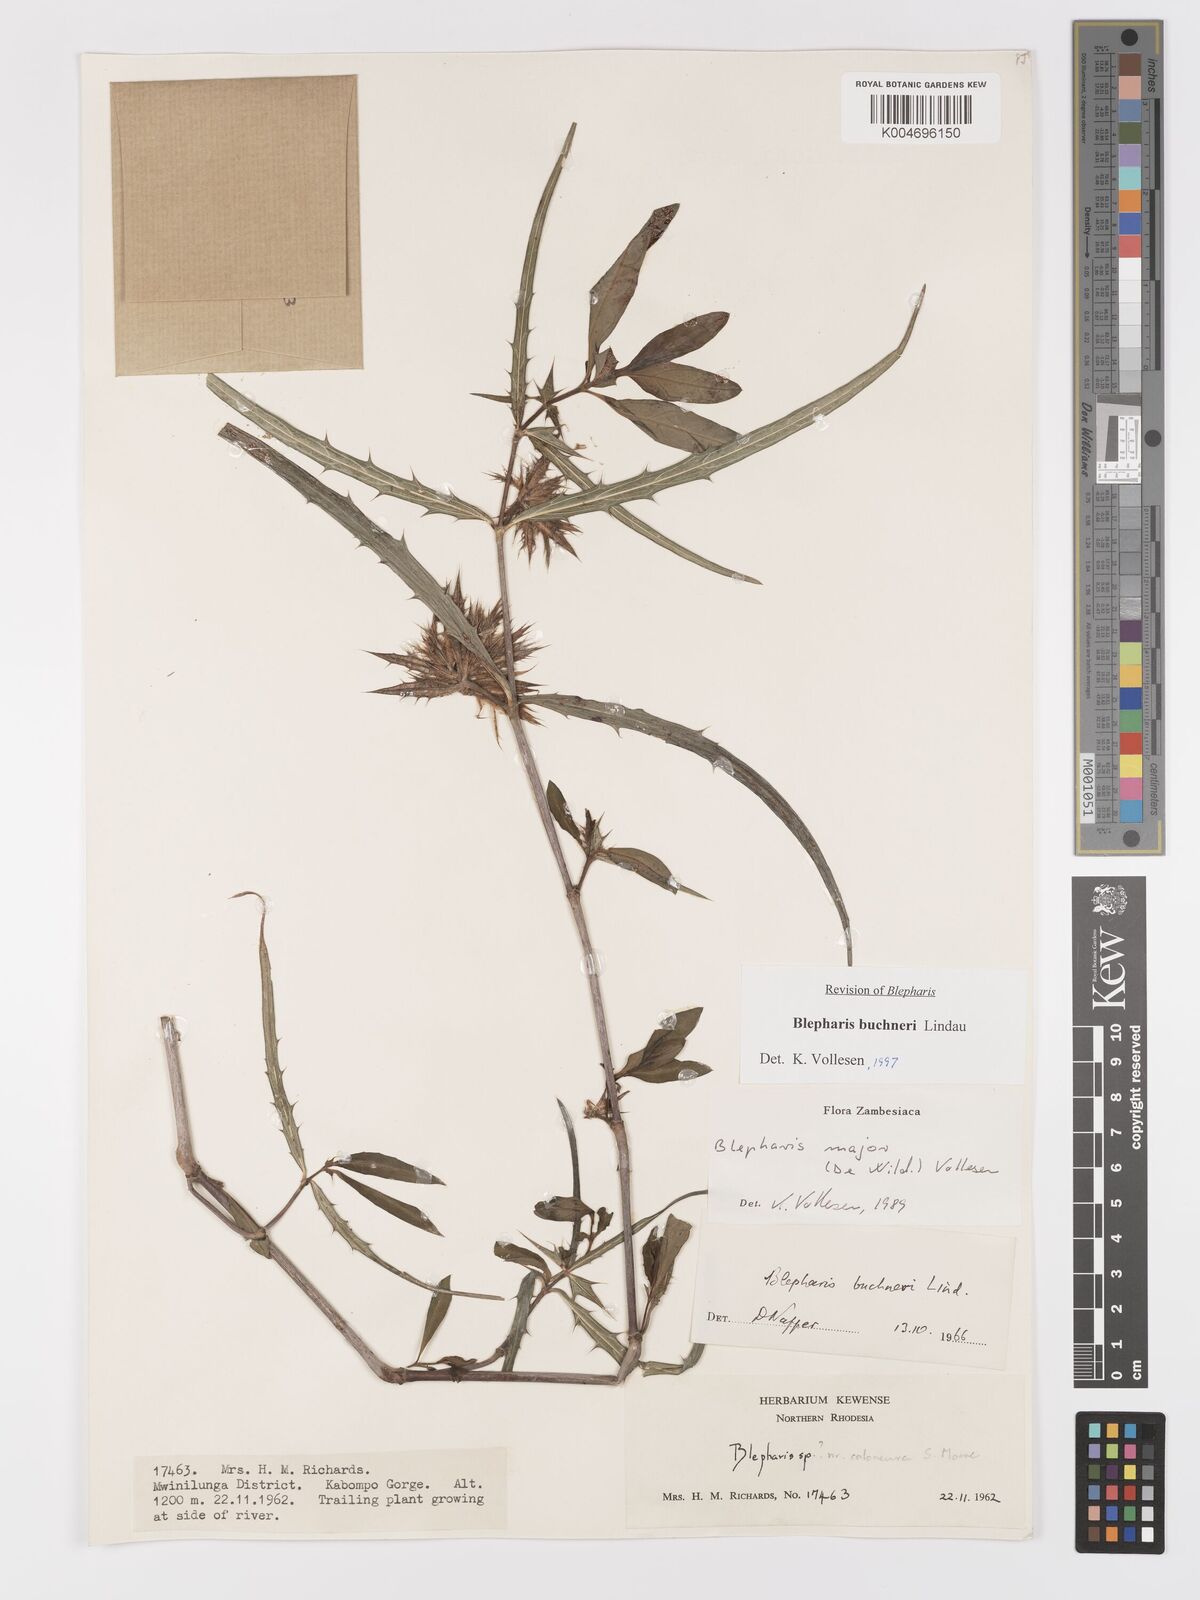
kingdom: Plantae
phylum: Tracheophyta
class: Magnoliopsida
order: Lamiales
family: Acanthaceae
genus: Blepharis
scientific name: Blepharis buchneri
